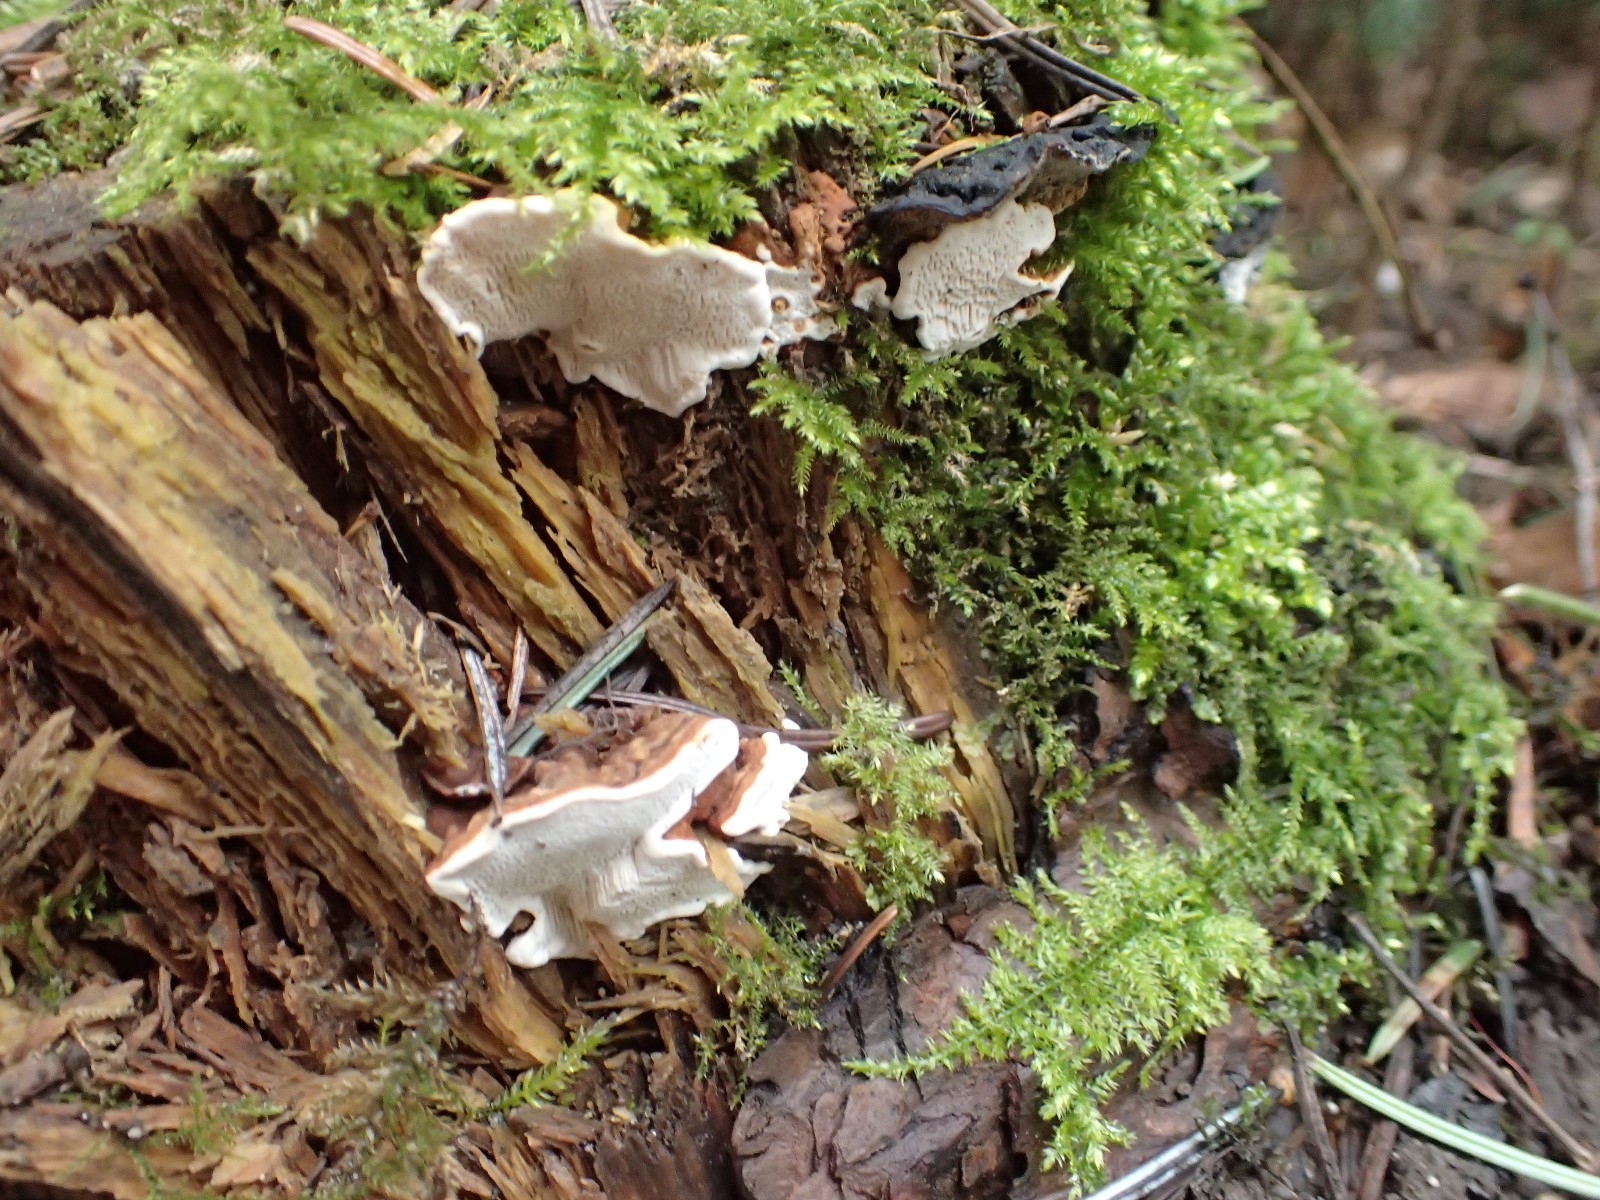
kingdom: Fungi
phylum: Basidiomycota
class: Agaricomycetes
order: Russulales
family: Bondarzewiaceae
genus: Heterobasidion
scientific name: Heterobasidion annosum
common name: almindelig rodfordærver
